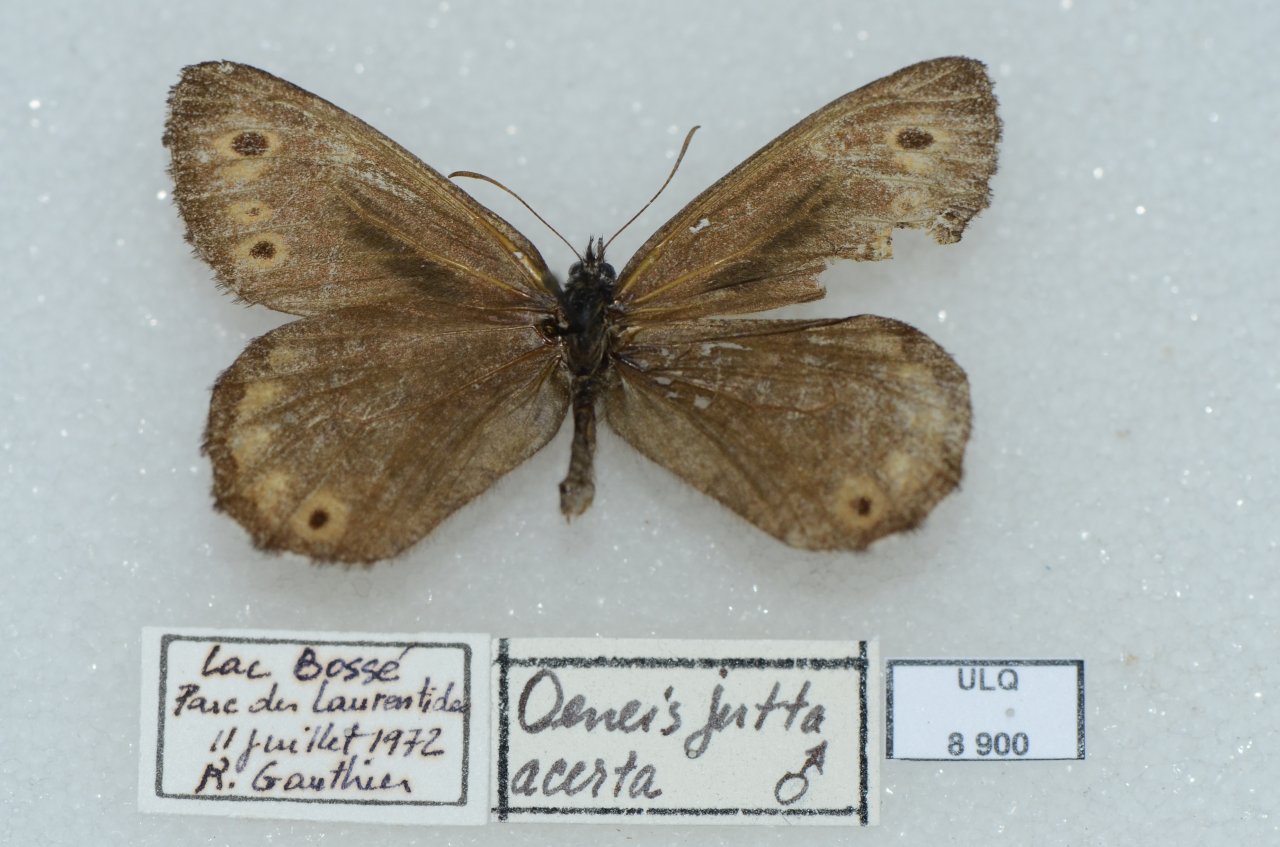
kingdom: Animalia
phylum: Arthropoda
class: Insecta
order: Lepidoptera
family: Nymphalidae
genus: Oeneis
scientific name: Oeneis jutta
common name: Jutta Arctic
